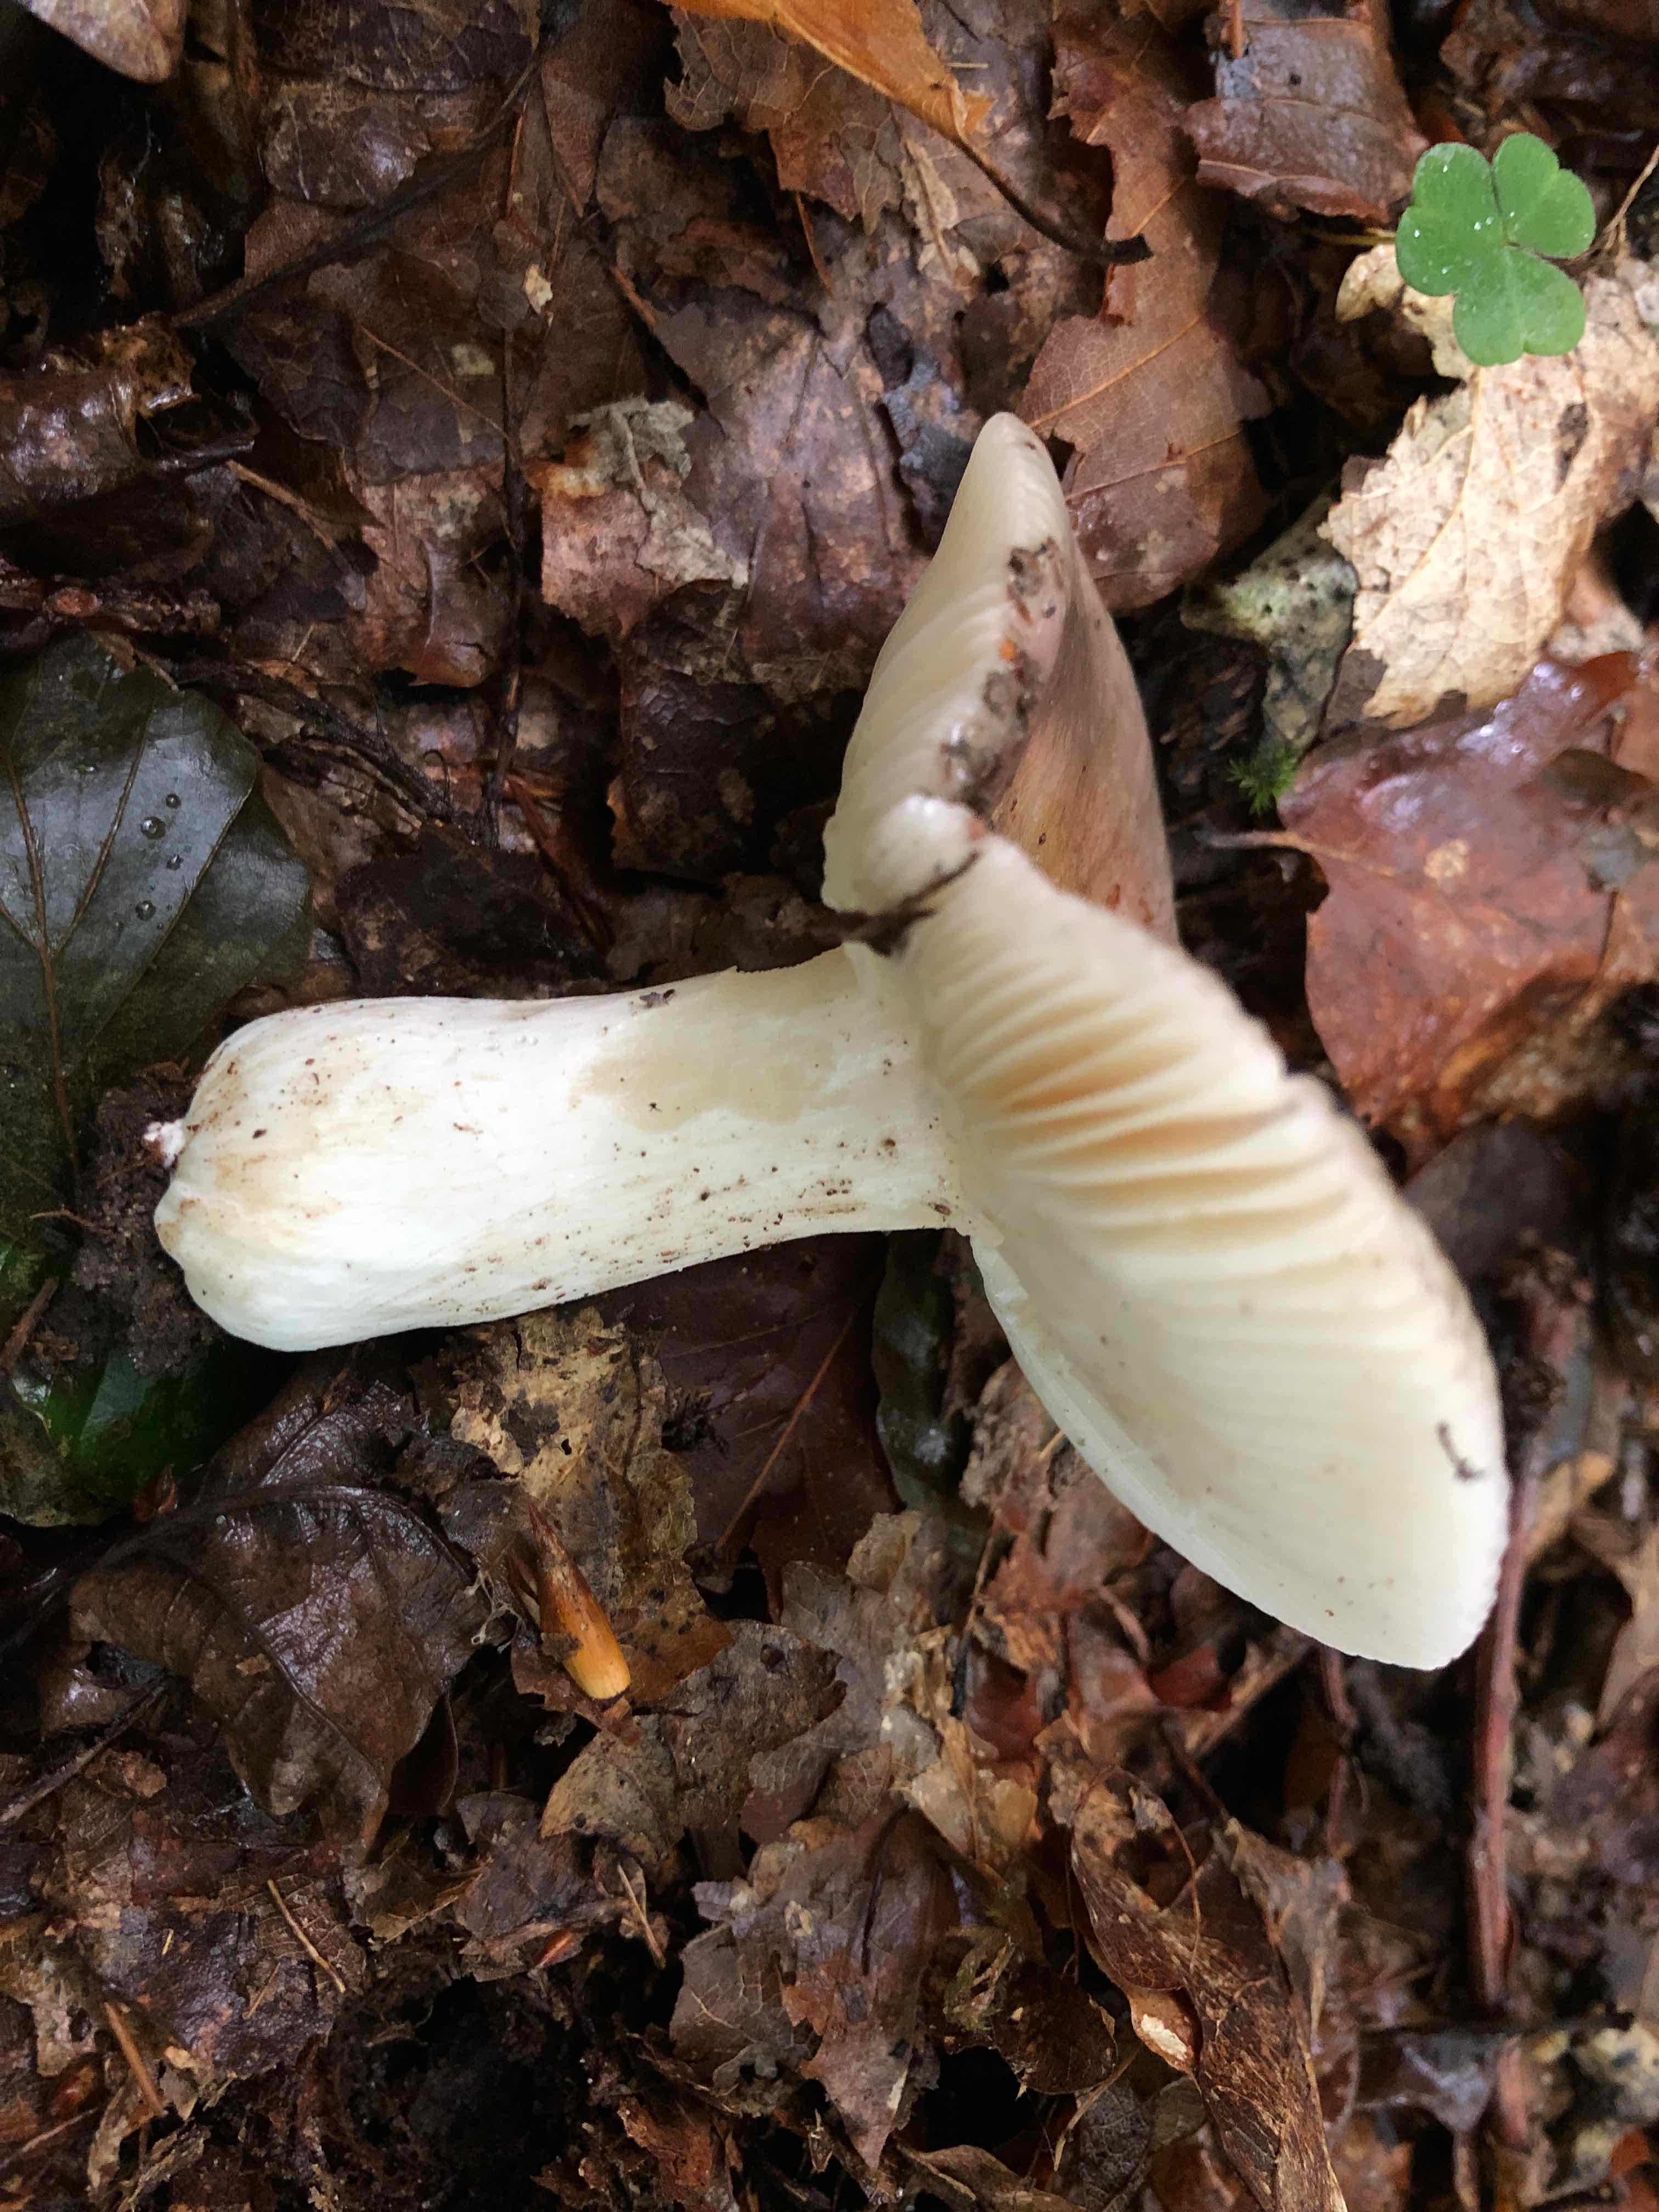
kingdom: Fungi
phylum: Basidiomycota
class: Agaricomycetes
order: Russulales
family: Russulaceae
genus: Russula
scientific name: Russula heterophylla
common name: gaffelbladet skørhat
